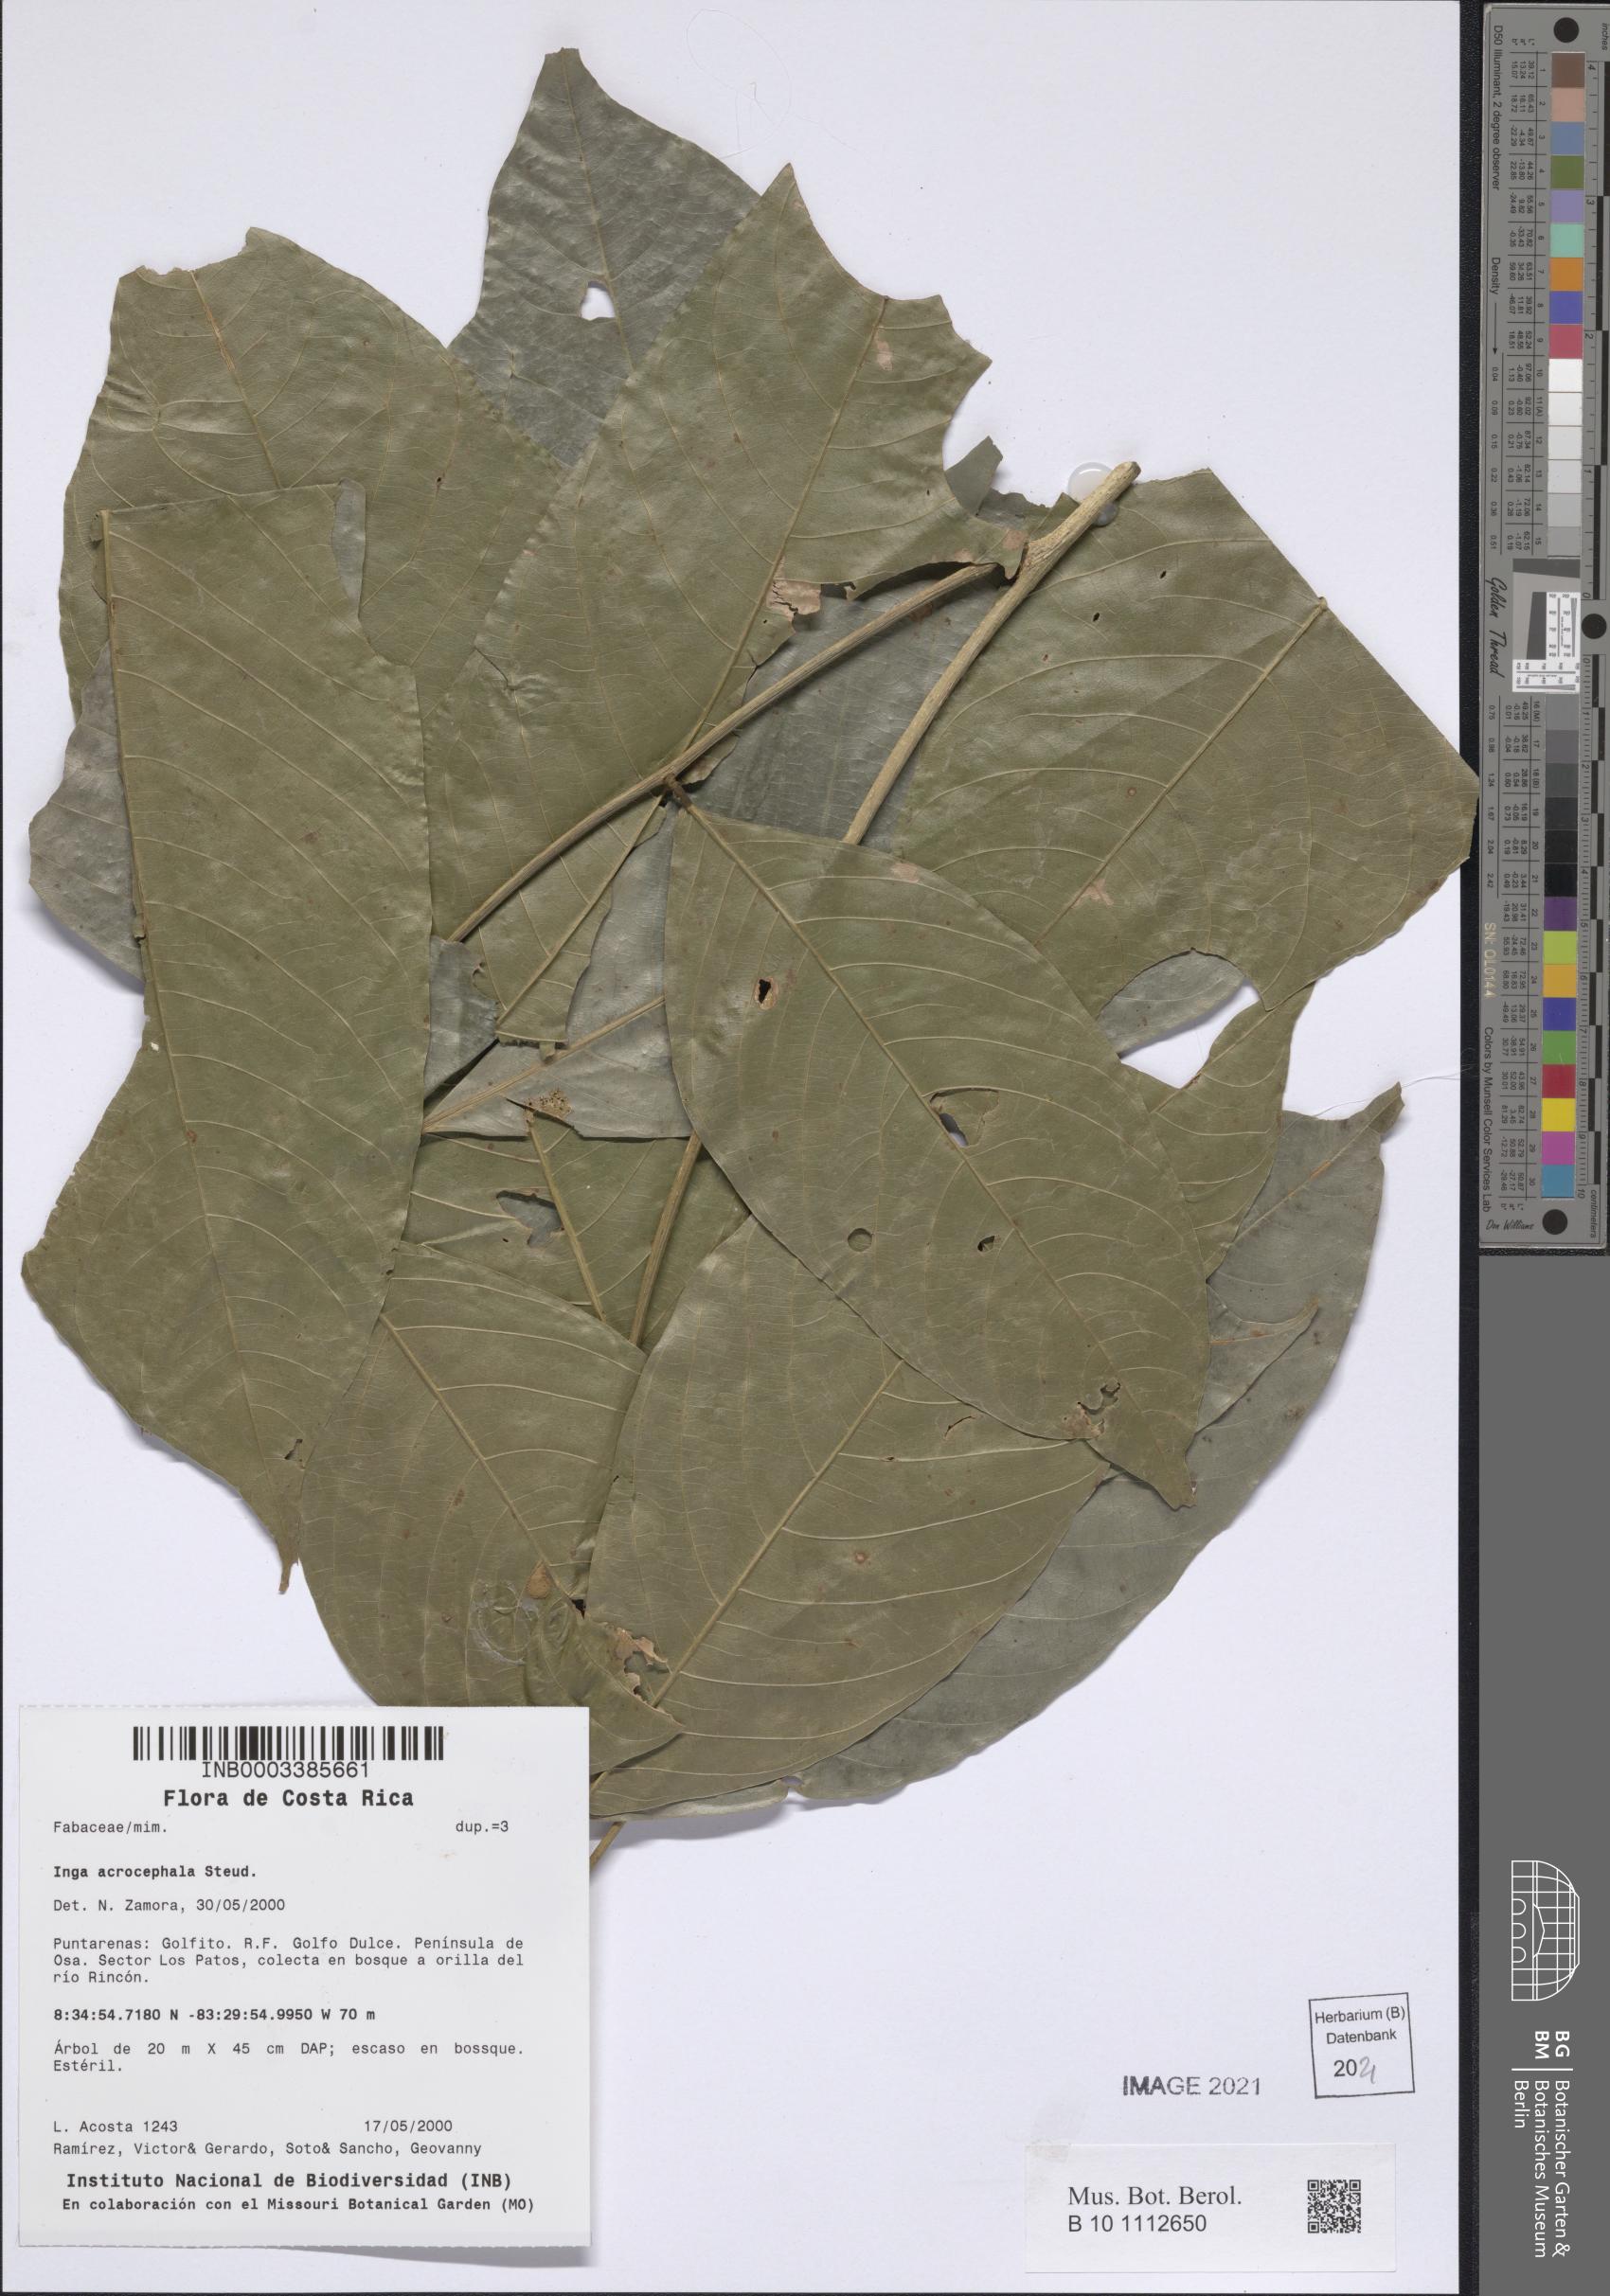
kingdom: Plantae
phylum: Tracheophyta
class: Magnoliopsida
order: Fabales
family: Fabaceae
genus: Inga
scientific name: Inga acrocephala
